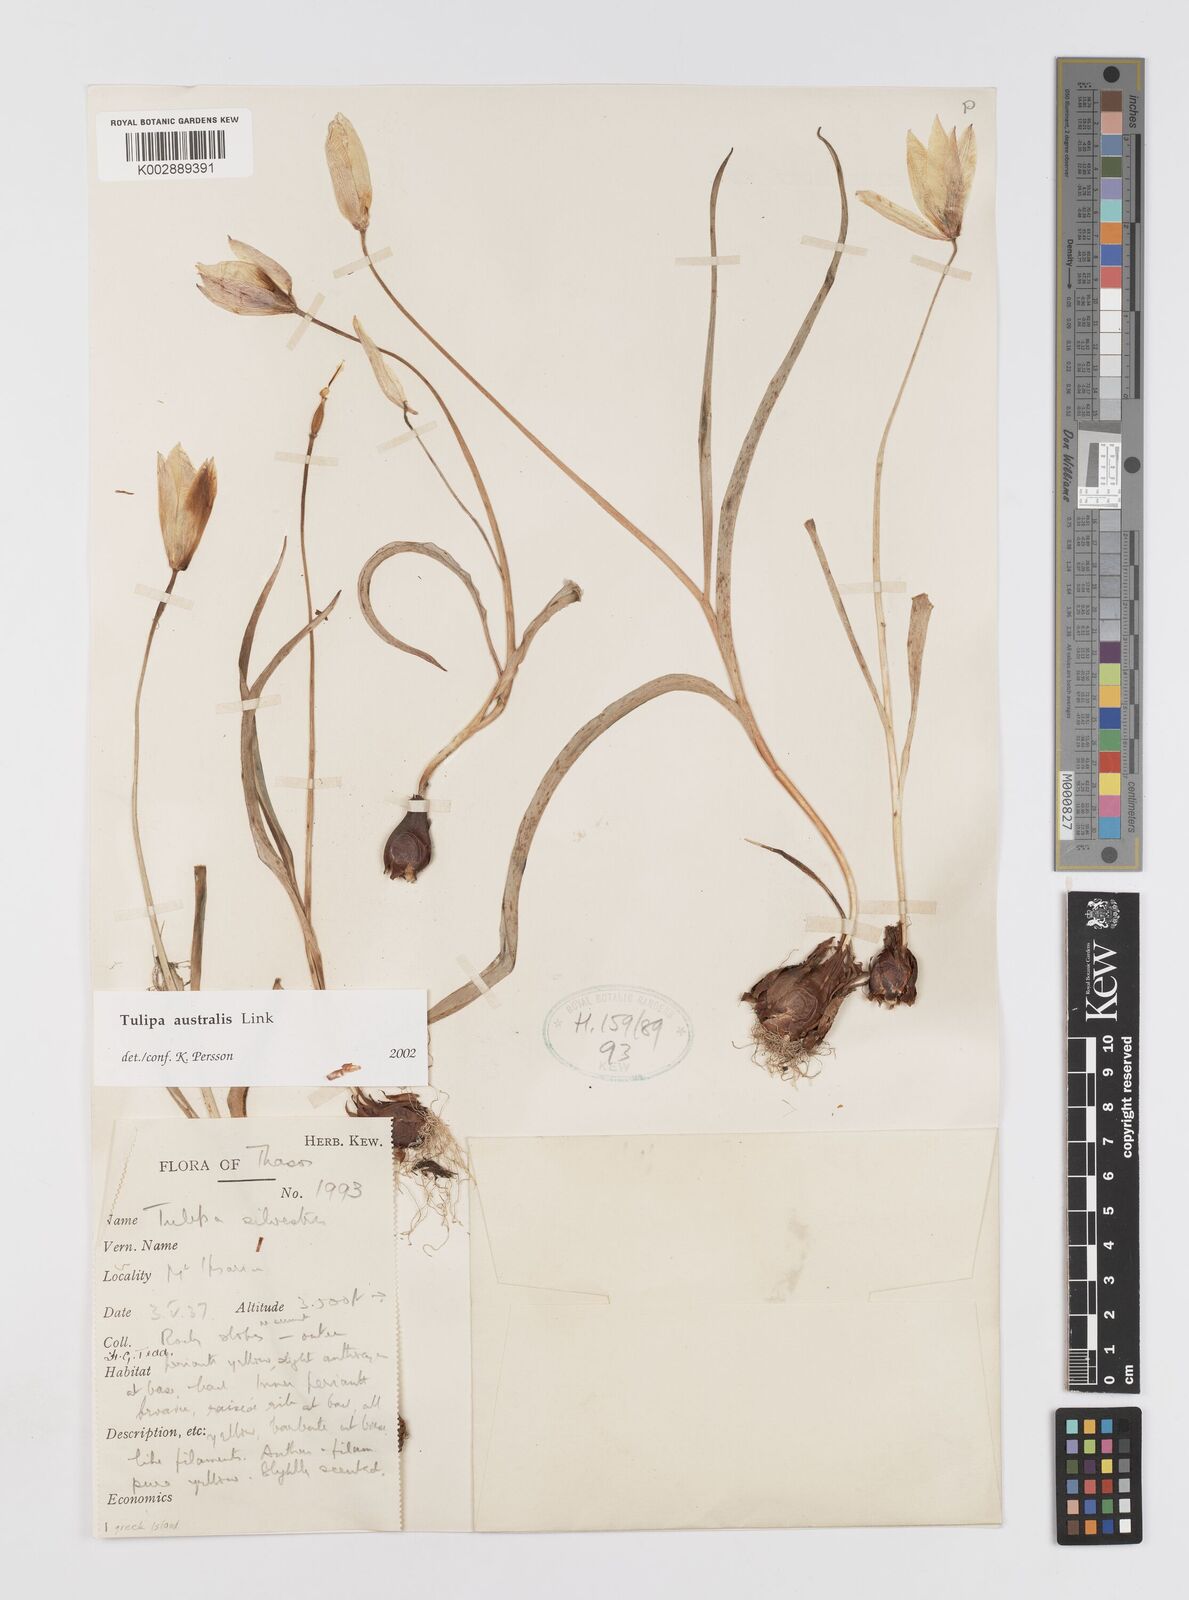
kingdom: Plantae
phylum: Tracheophyta
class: Liliopsida
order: Liliales
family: Liliaceae
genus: Tulipa
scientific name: Tulipa sylvestris
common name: Wild tulip
